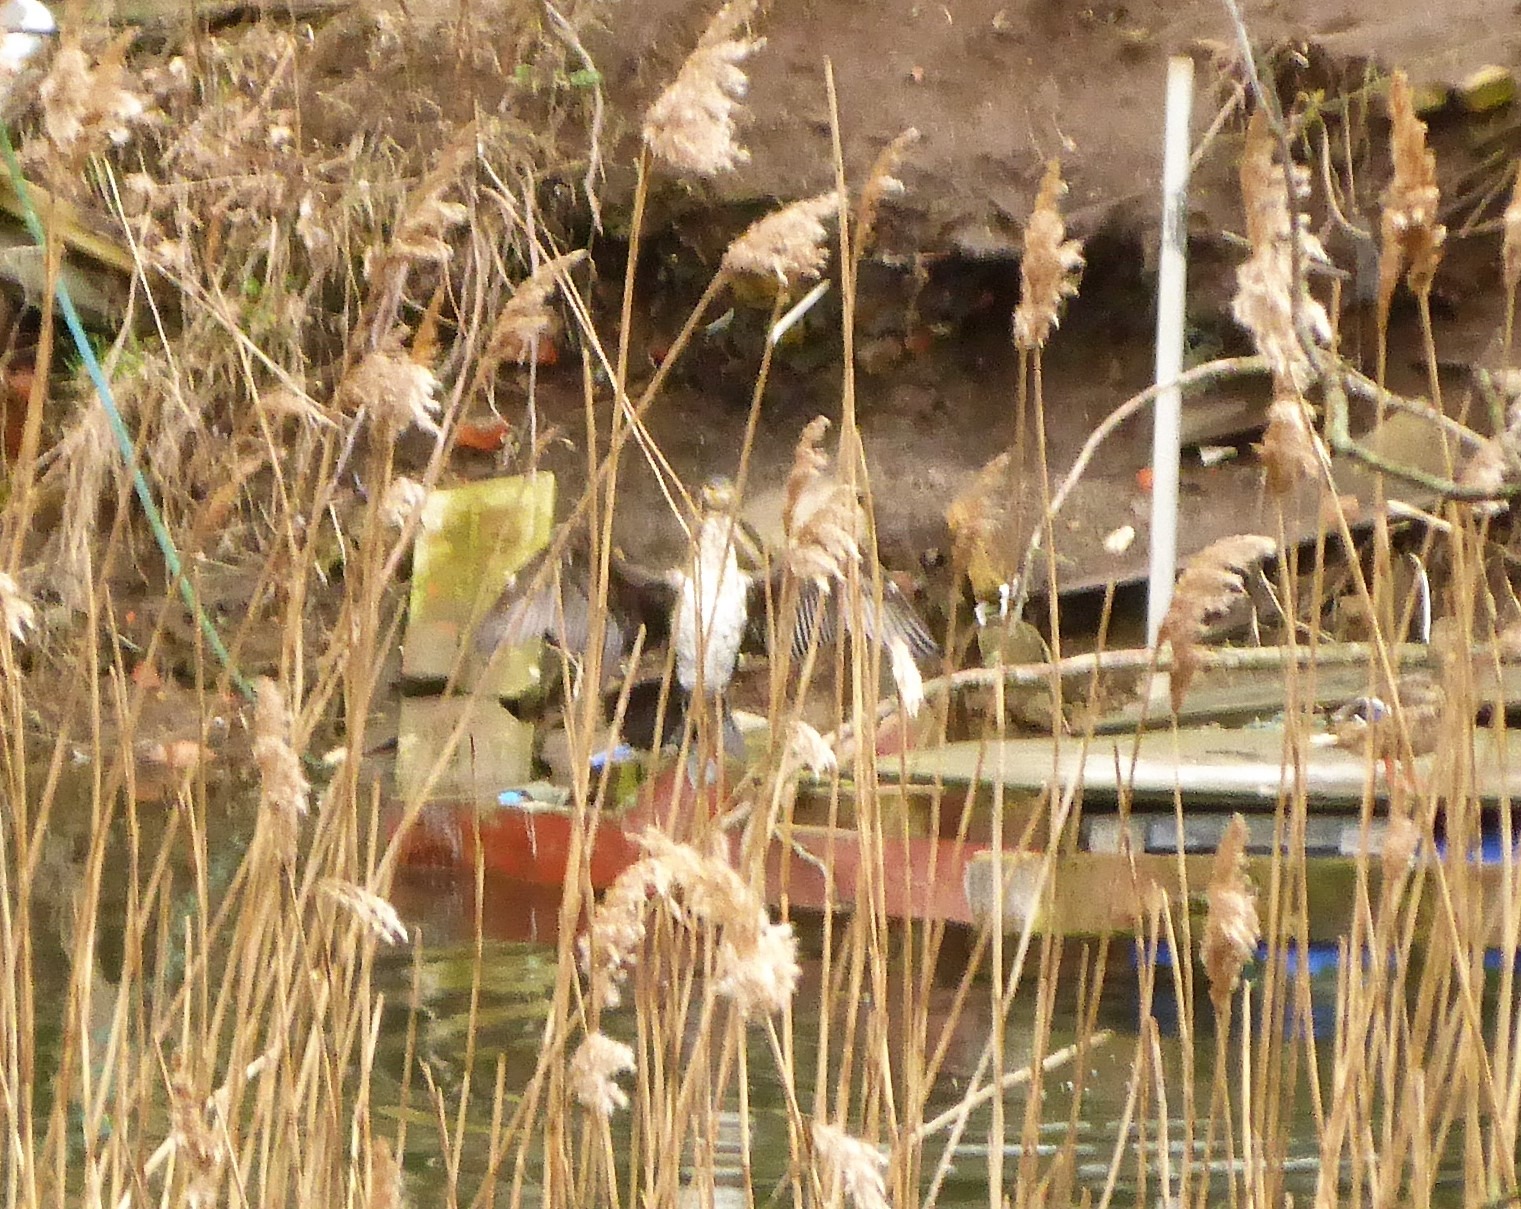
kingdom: Animalia
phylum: Chordata
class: Aves
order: Suliformes
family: Phalacrocoracidae
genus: Phalacrocorax
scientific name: Phalacrocorax carbo
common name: Skarv
